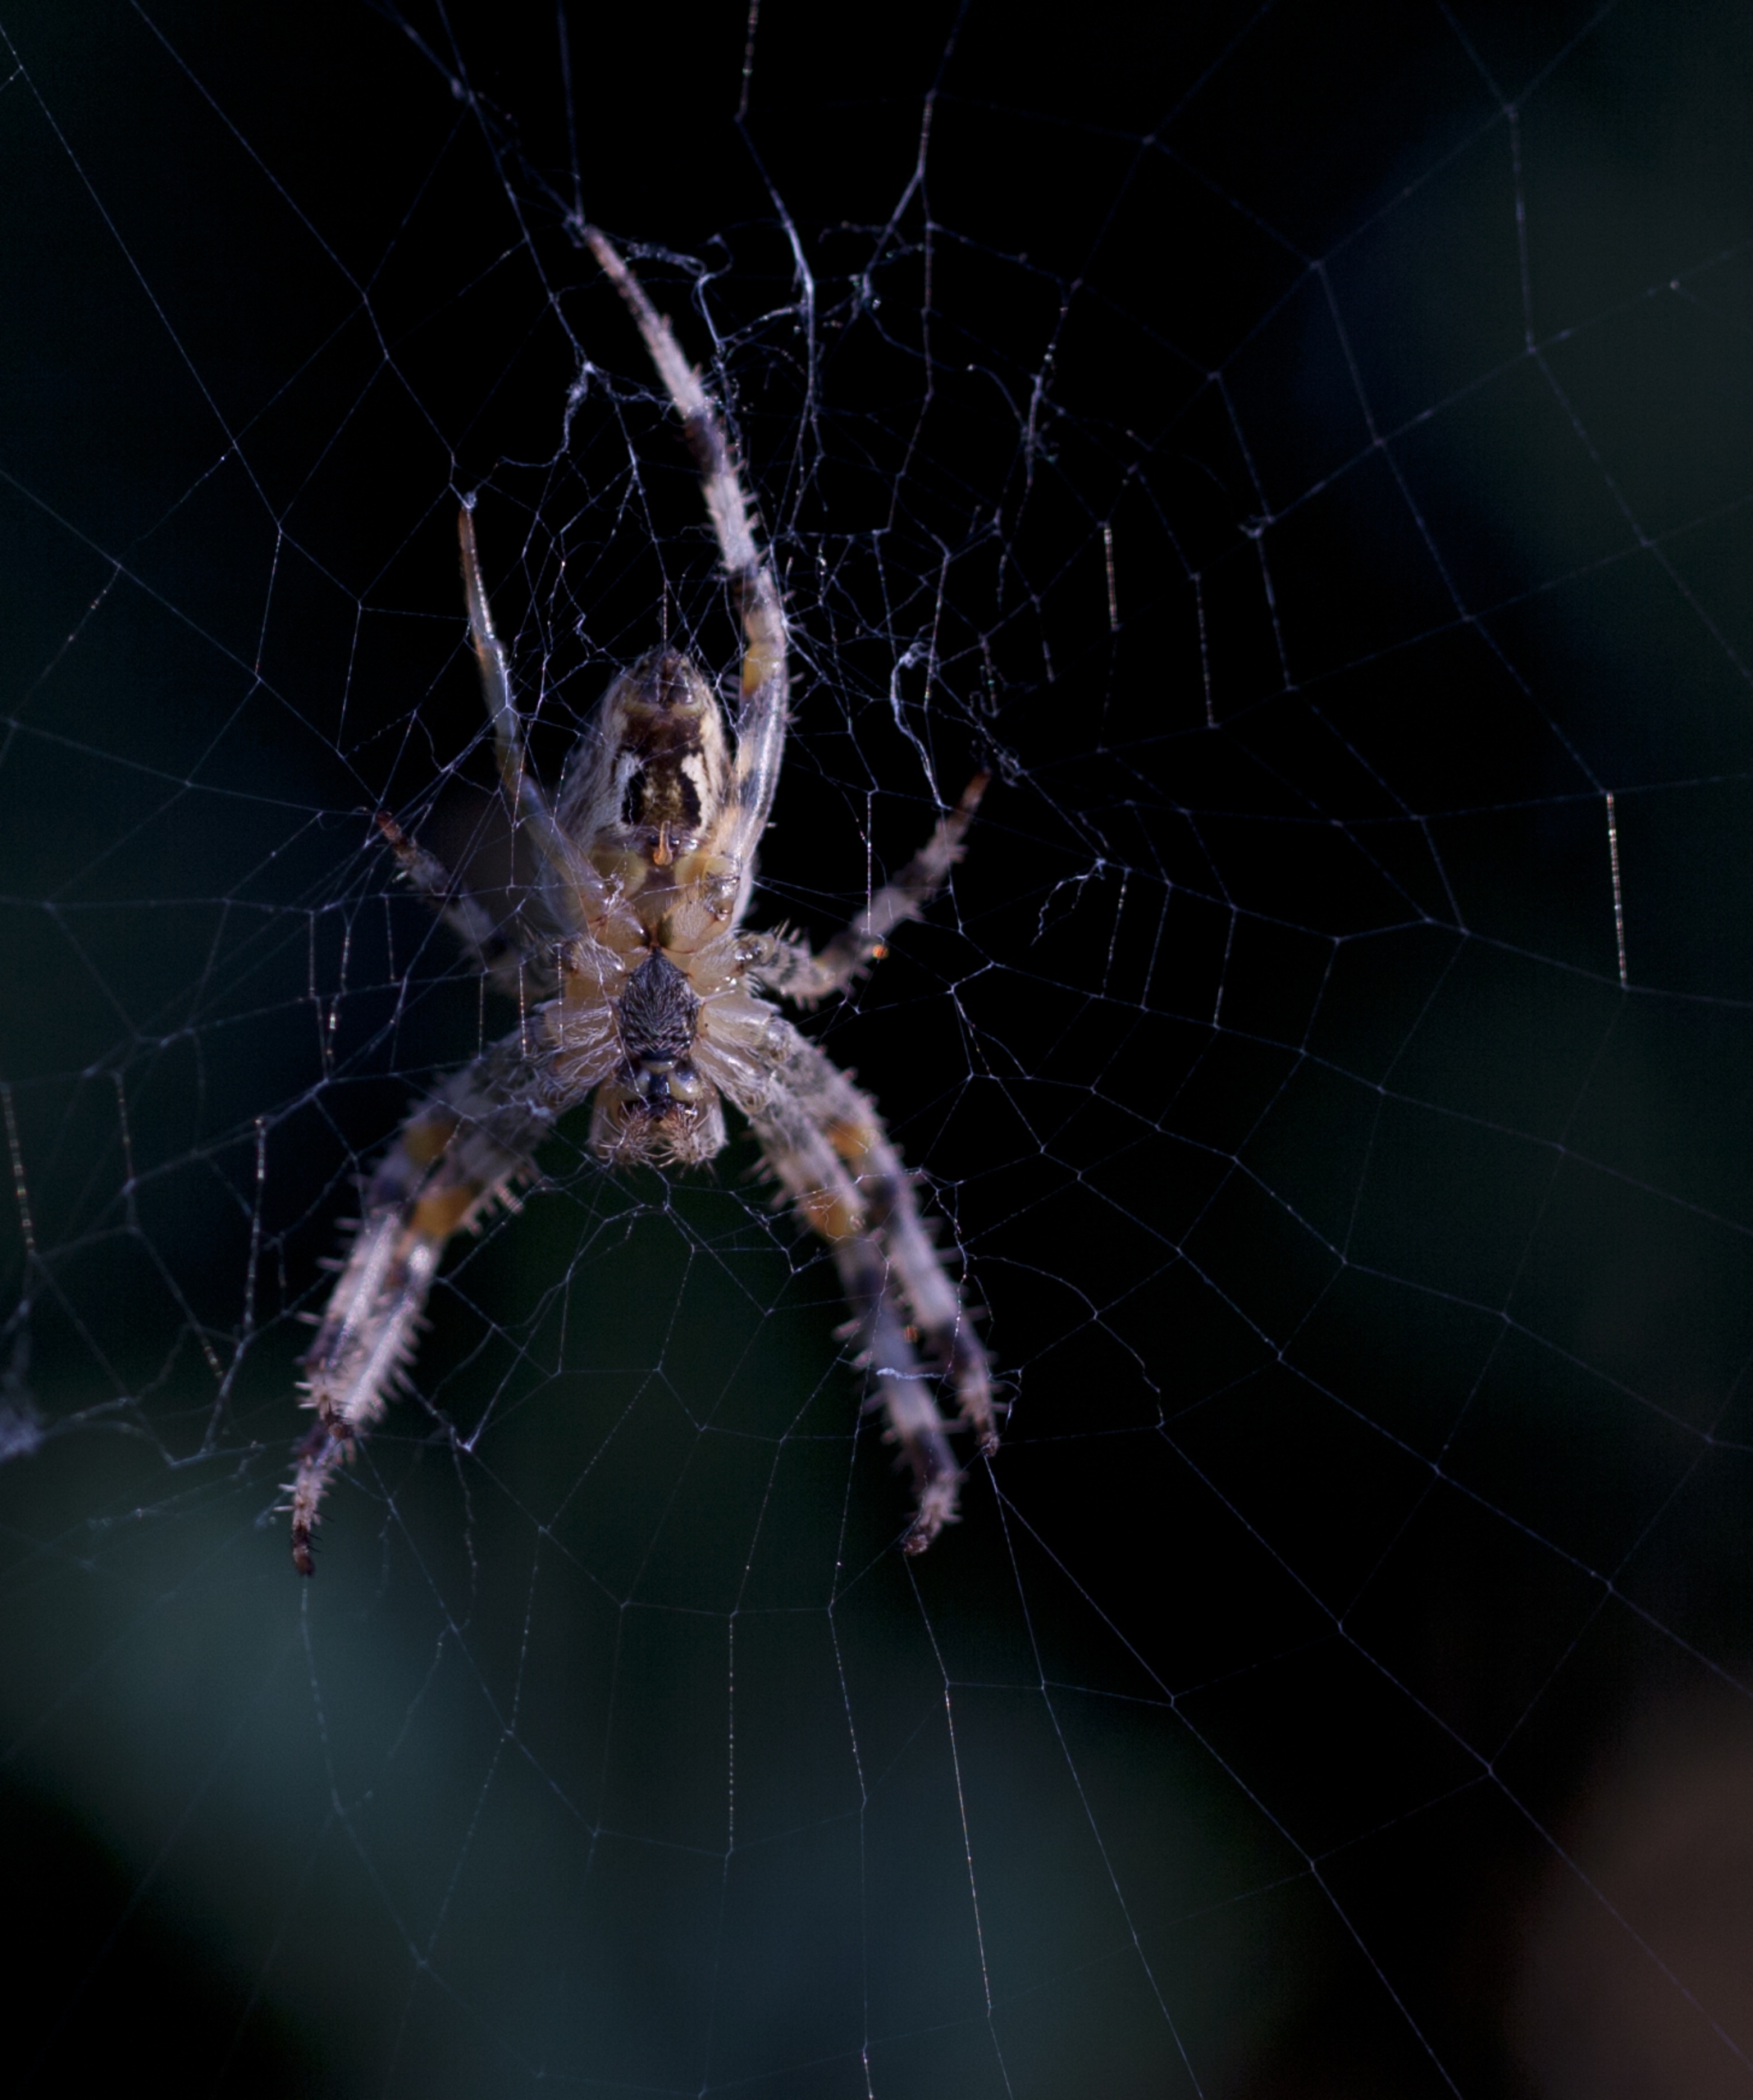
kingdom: Animalia
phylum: Arthropoda
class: Arachnida
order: Araneae
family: Araneidae
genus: Araneus
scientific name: Araneus diadematus
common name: Korsedderkop
